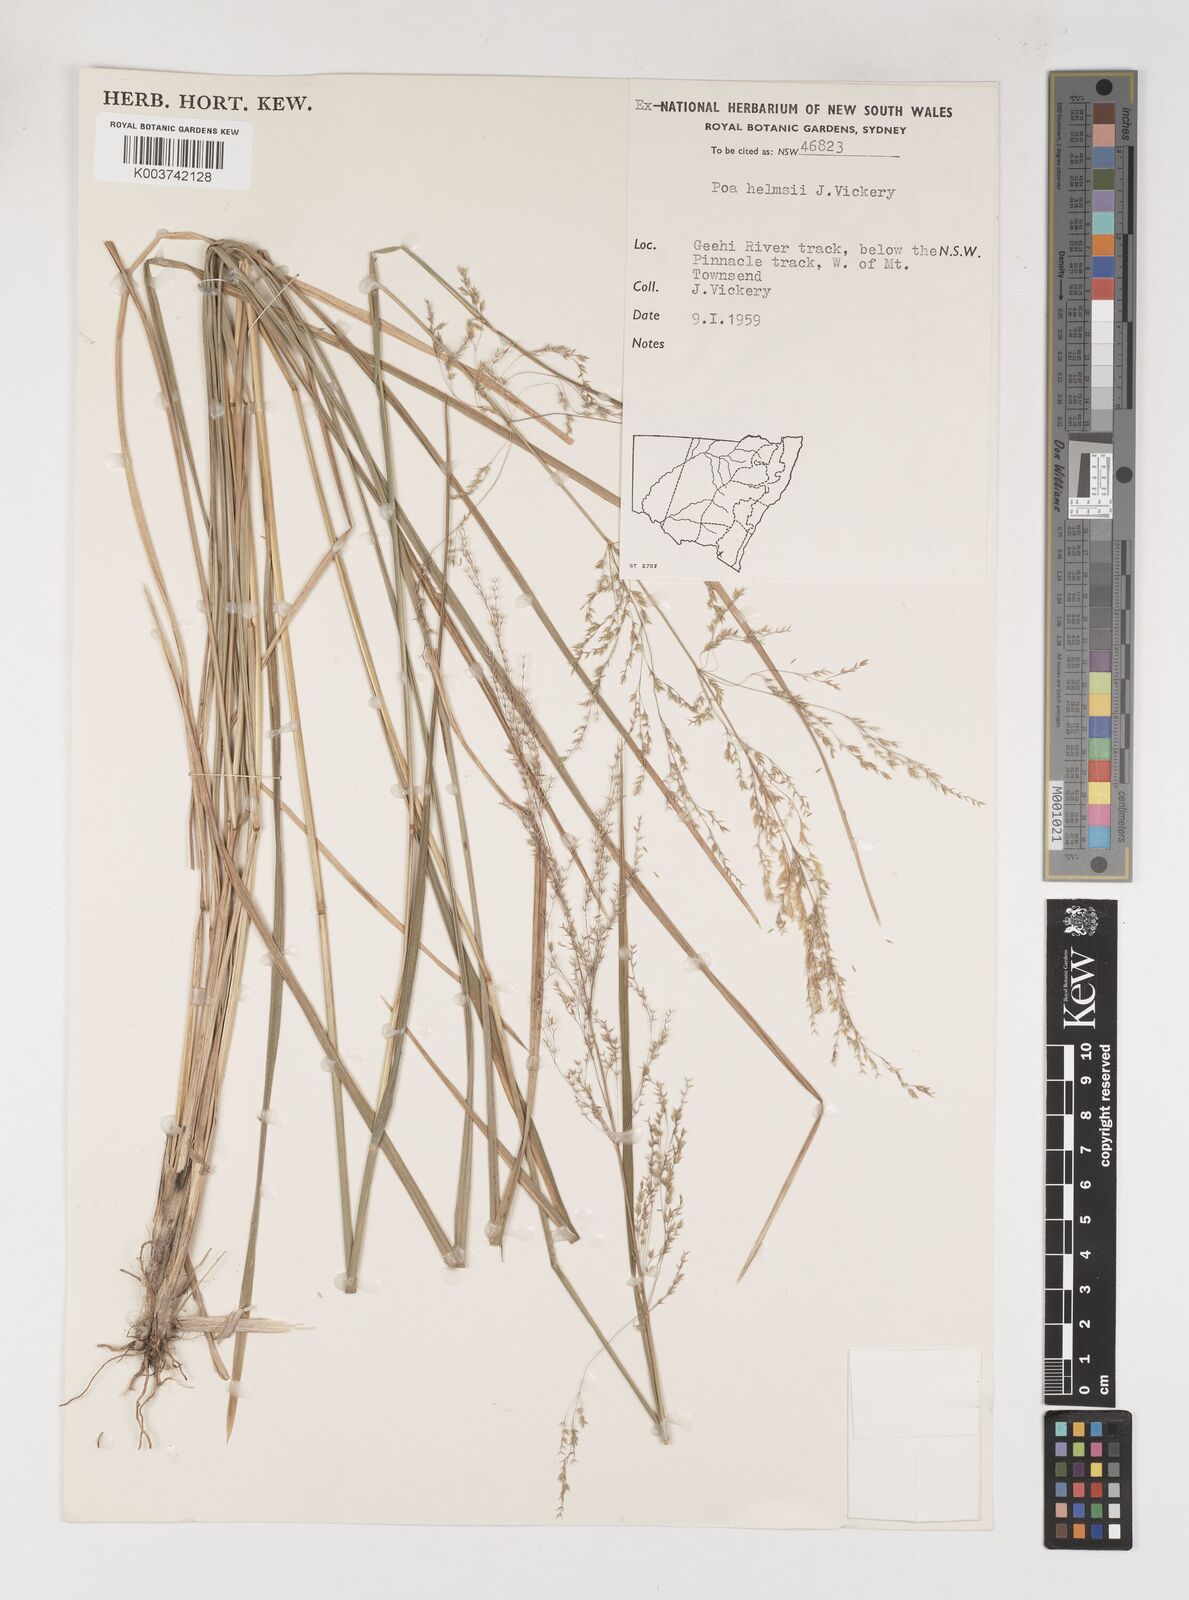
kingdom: Plantae
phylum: Tracheophyta
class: Liliopsida
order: Poales
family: Poaceae
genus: Poa
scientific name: Poa helmsii
